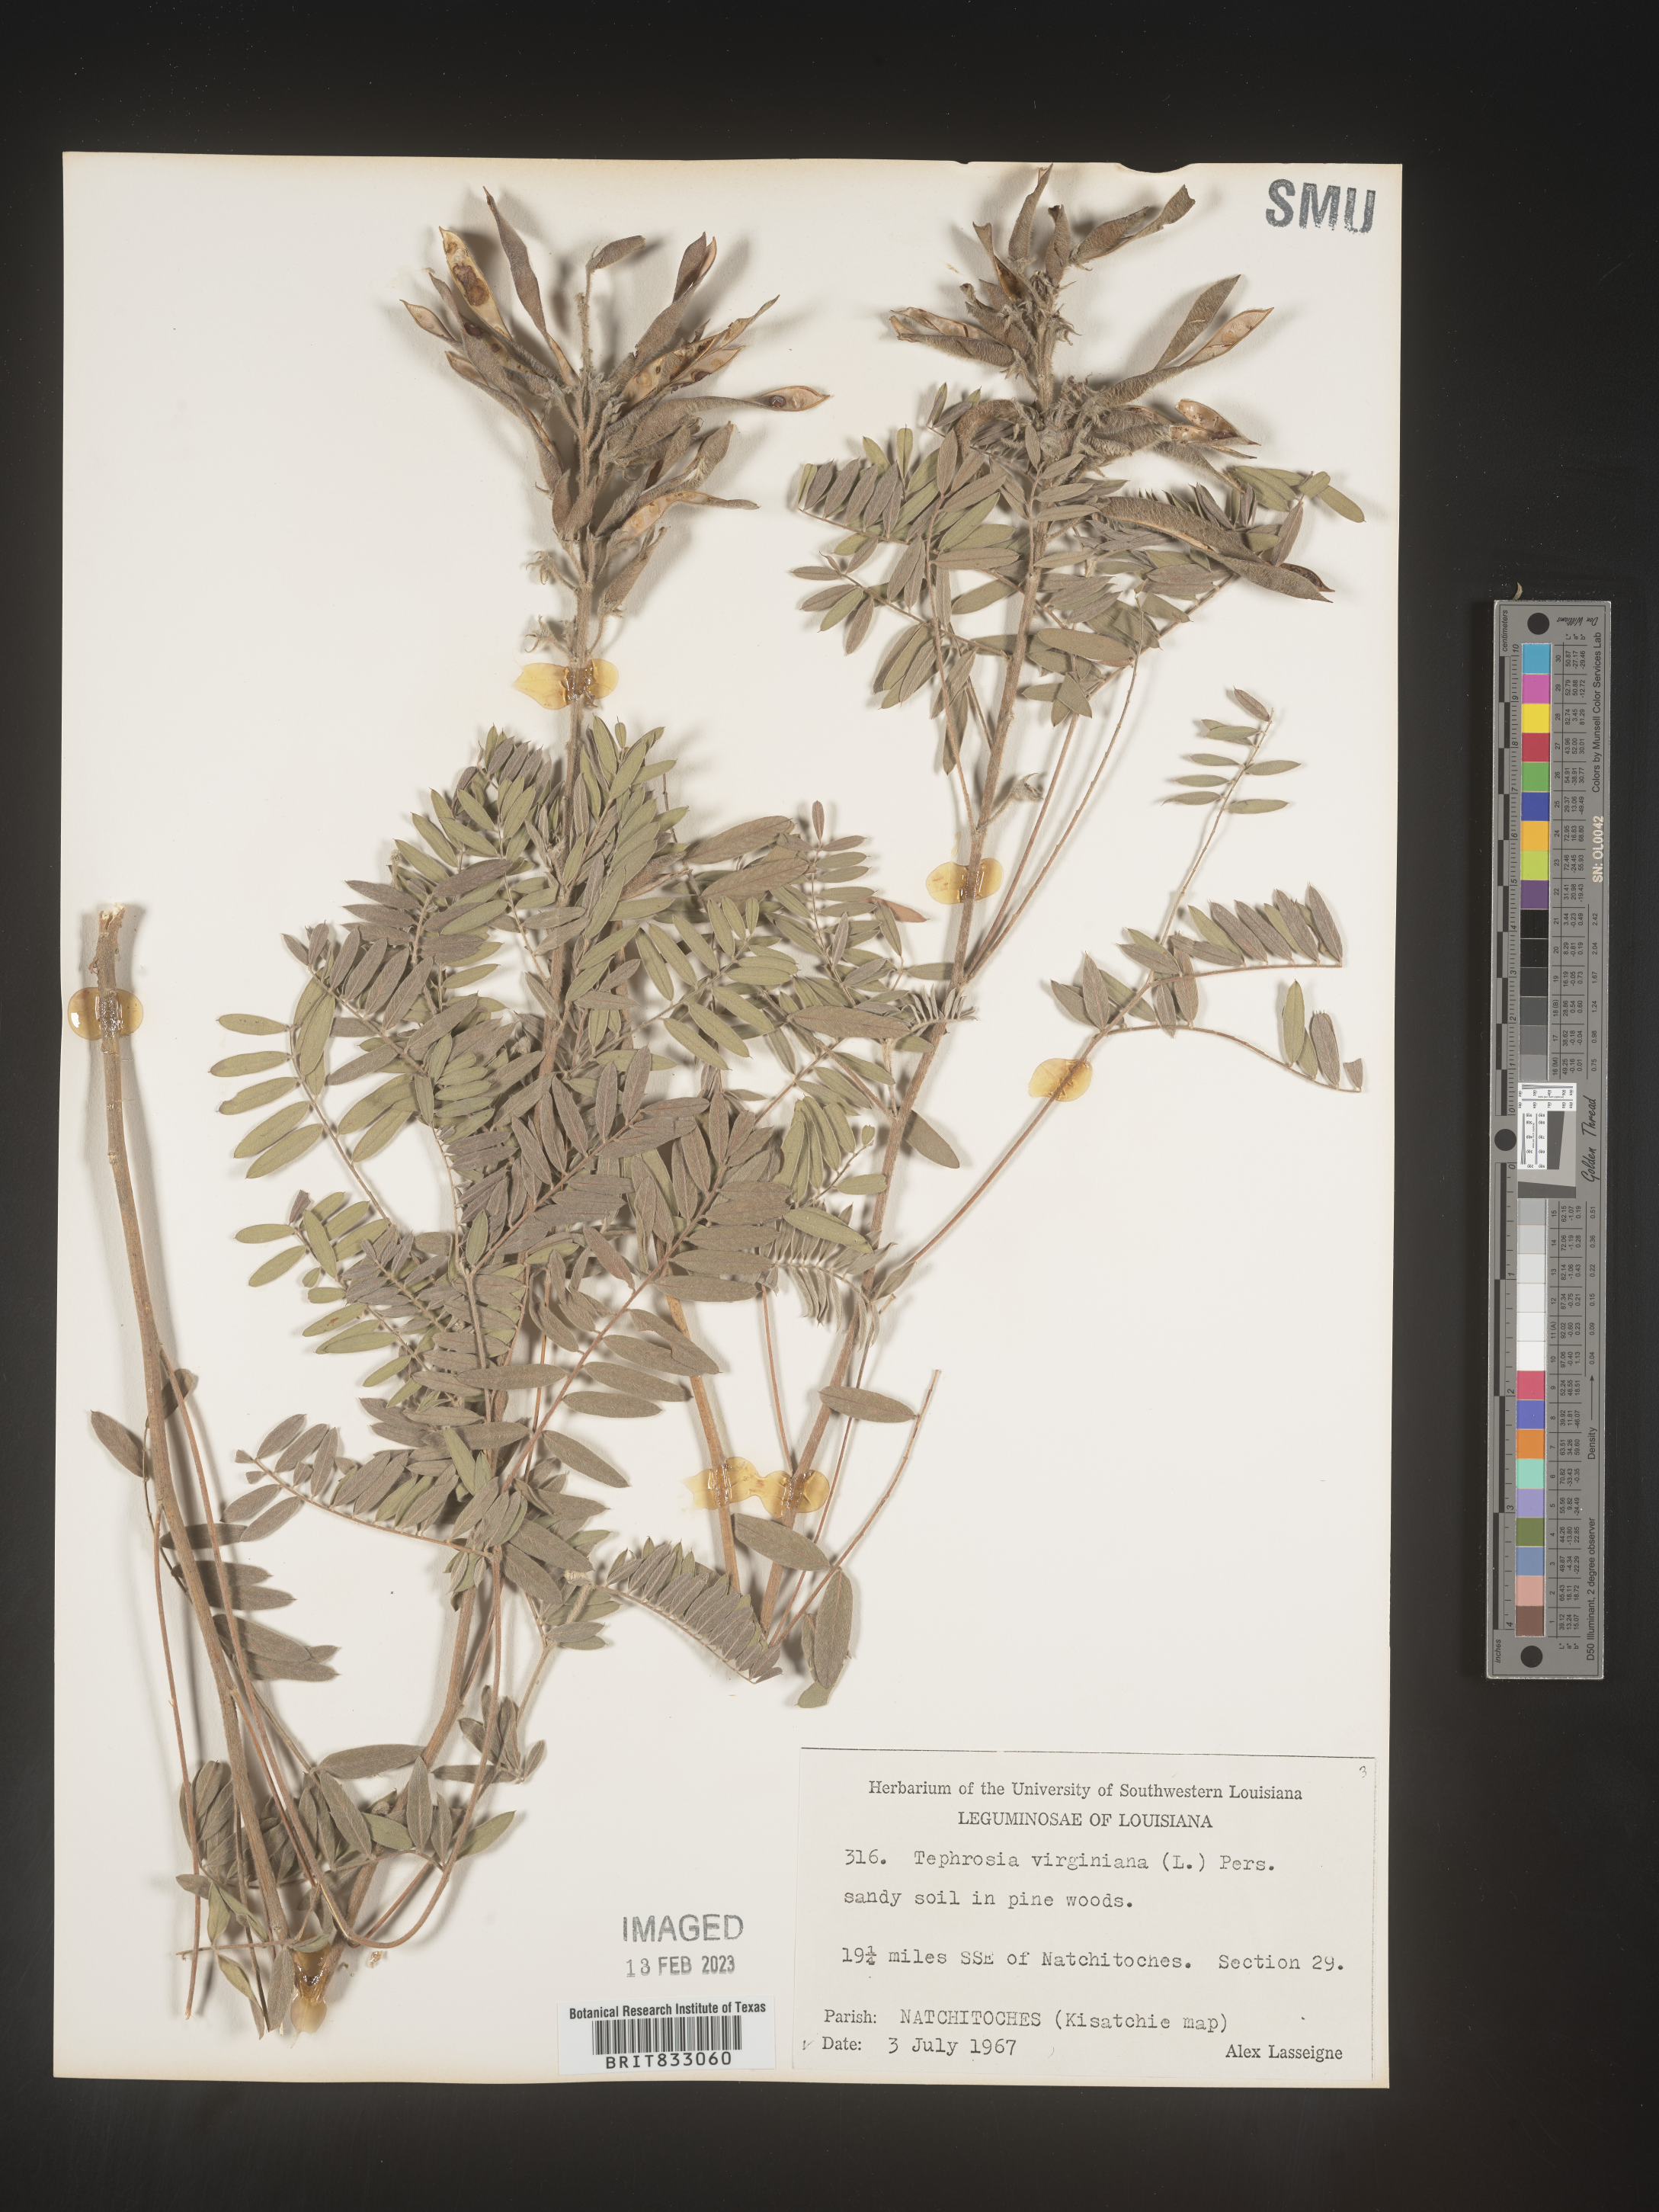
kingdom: Plantae
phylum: Tracheophyta
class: Magnoliopsida
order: Fabales
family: Fabaceae
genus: Tephrosia
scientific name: Tephrosia virginiana
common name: Rabbit-pea
